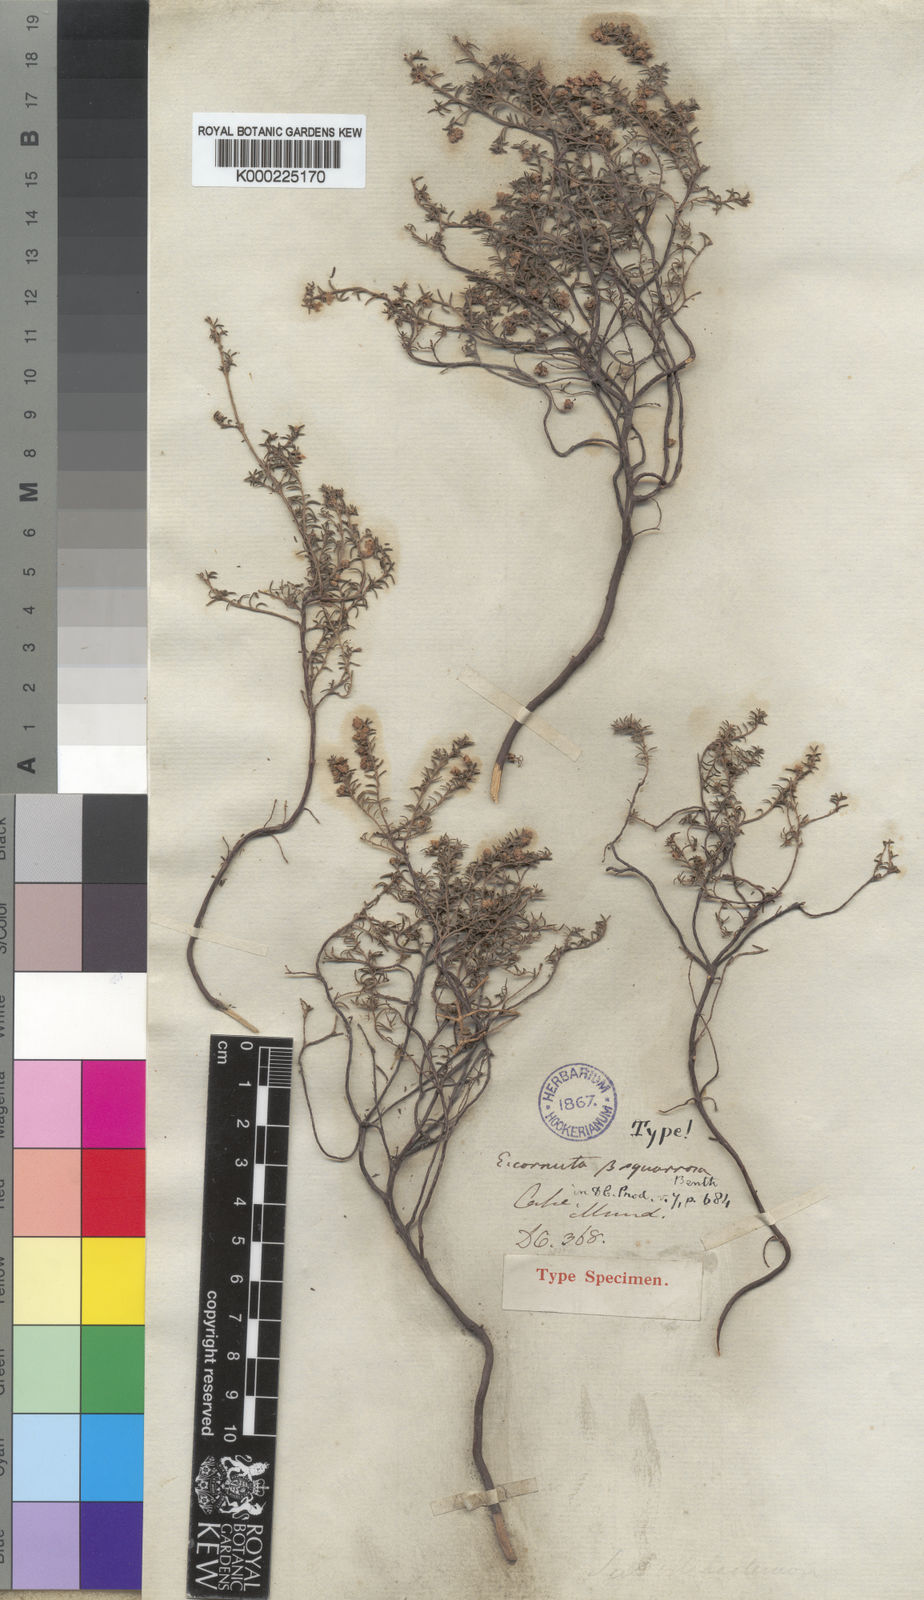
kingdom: Plantae
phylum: Tracheophyta
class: Magnoliopsida
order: Ericales
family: Ericaceae
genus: Erica
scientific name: Erica cristiflora
